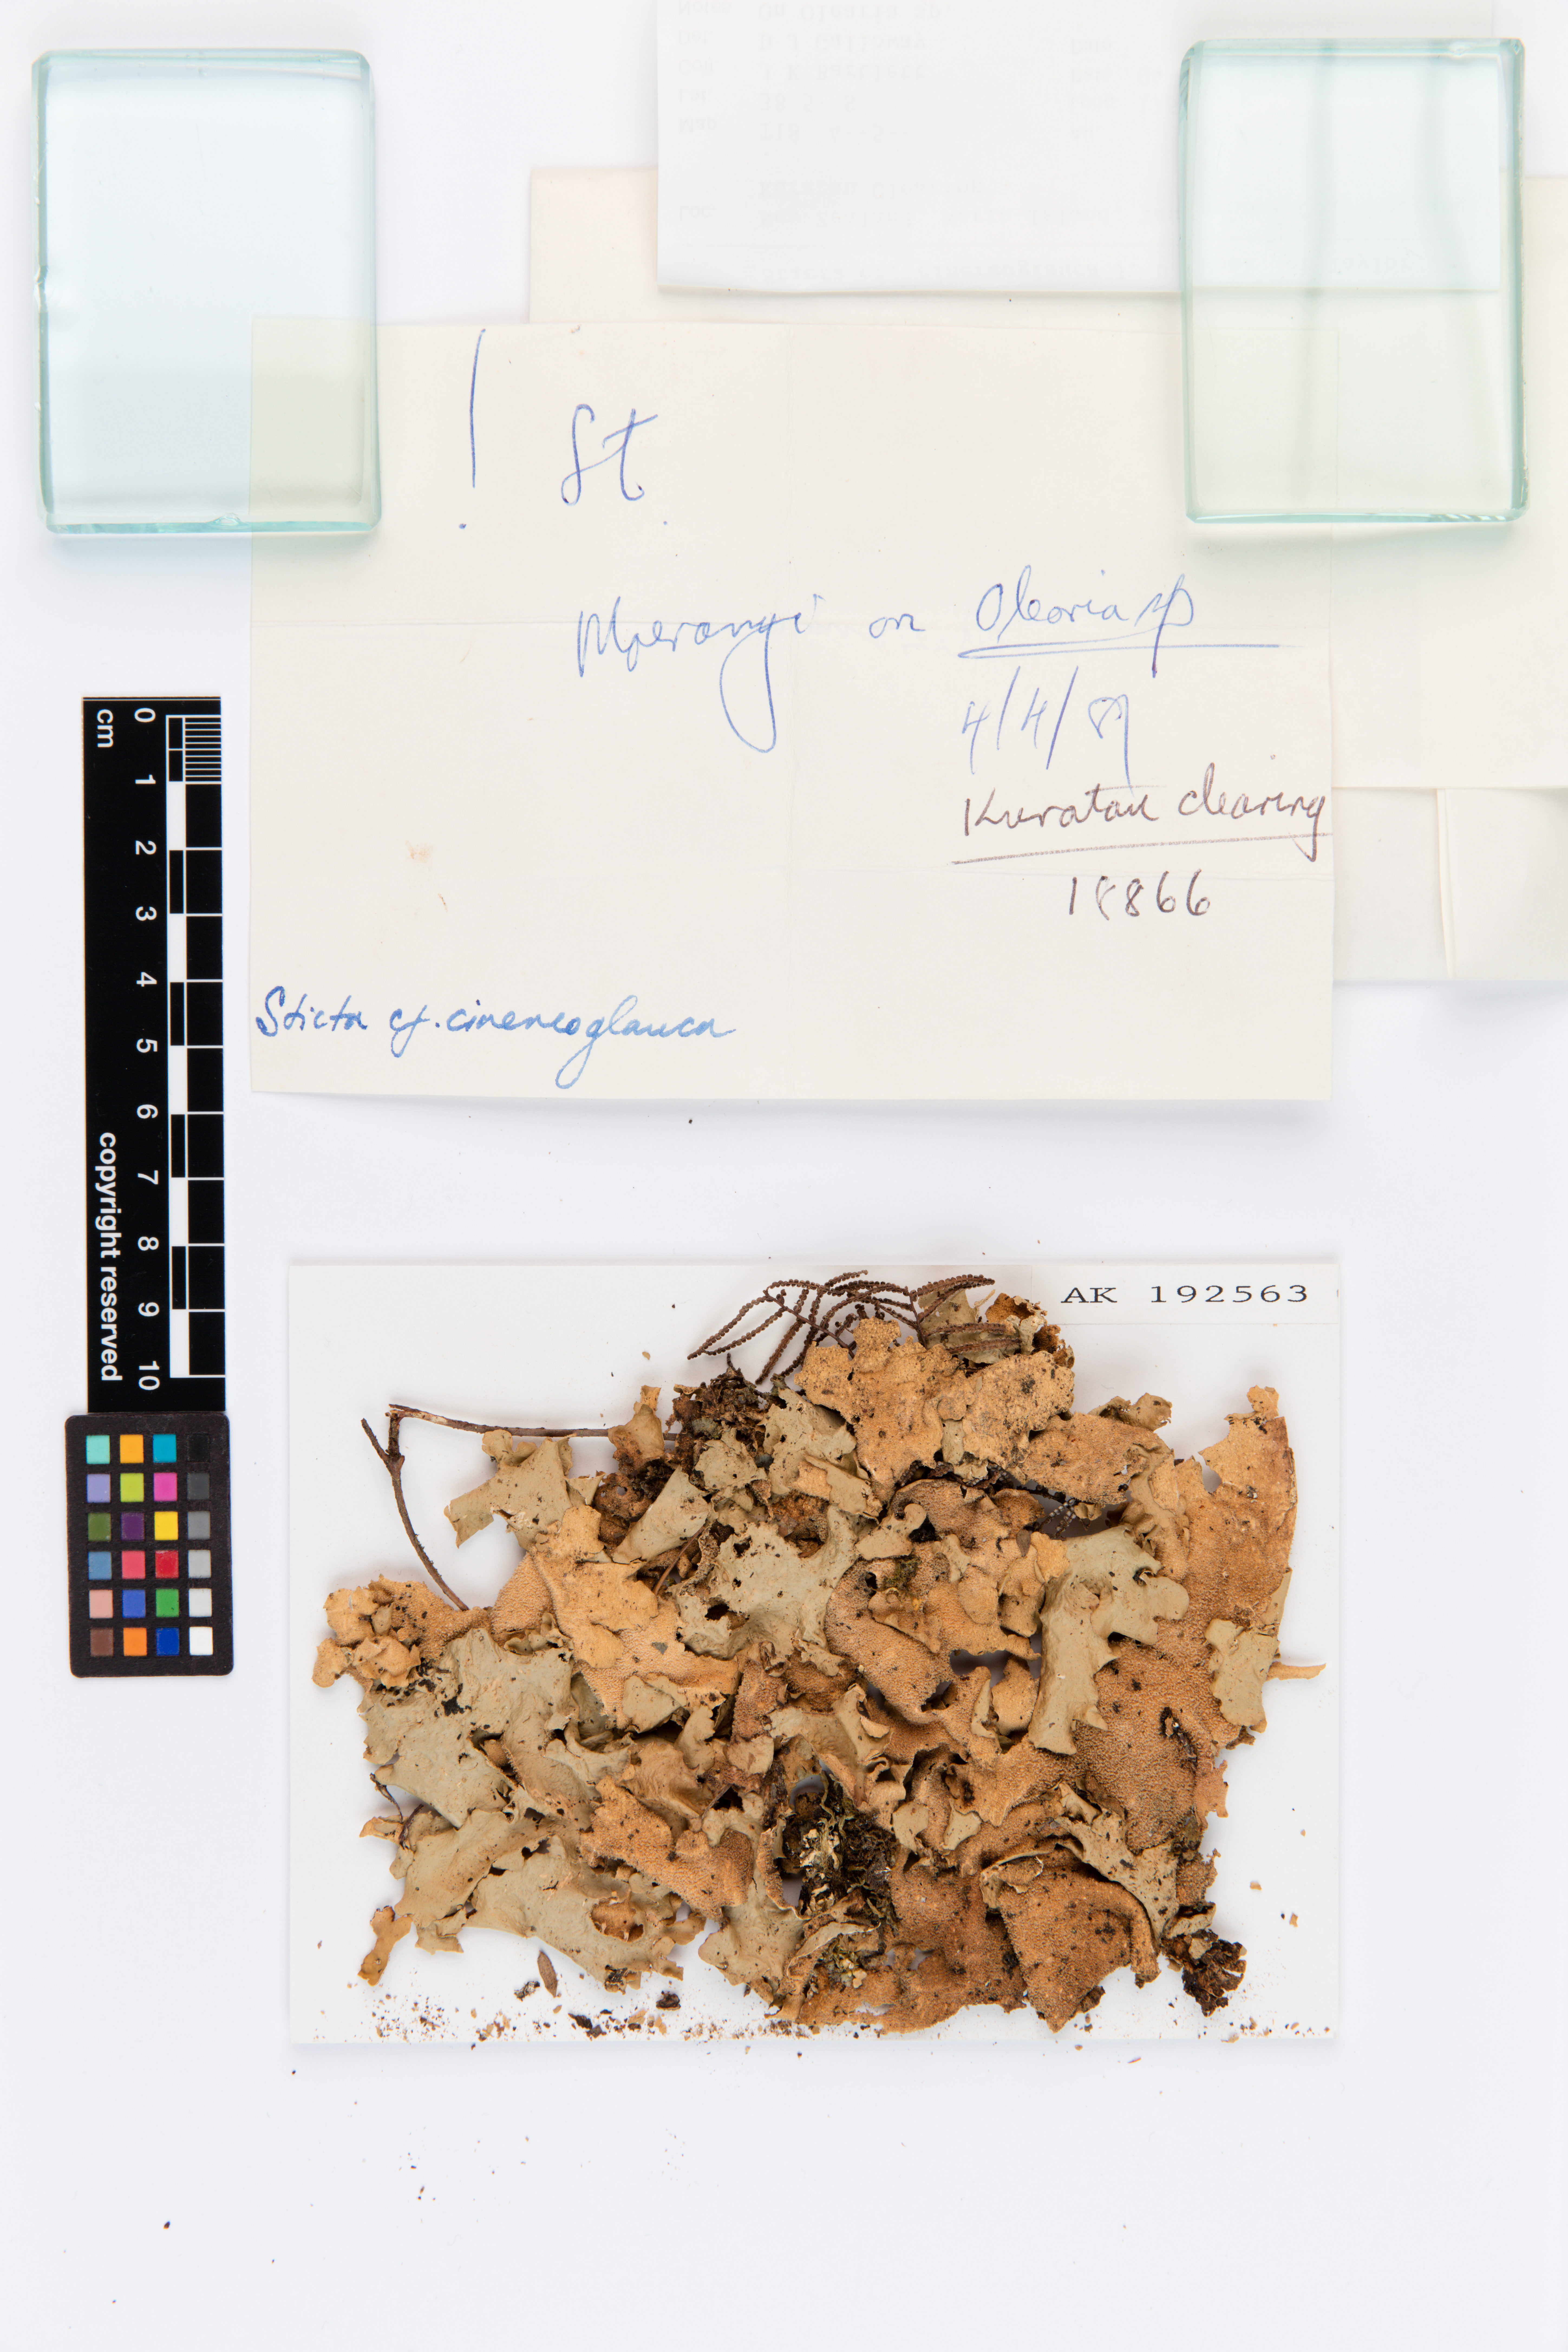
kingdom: Fungi
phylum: Ascomycota
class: Lecanoromycetes
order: Peltigerales
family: Lobariaceae
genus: Sticta
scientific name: Sticta cinereoglauca
